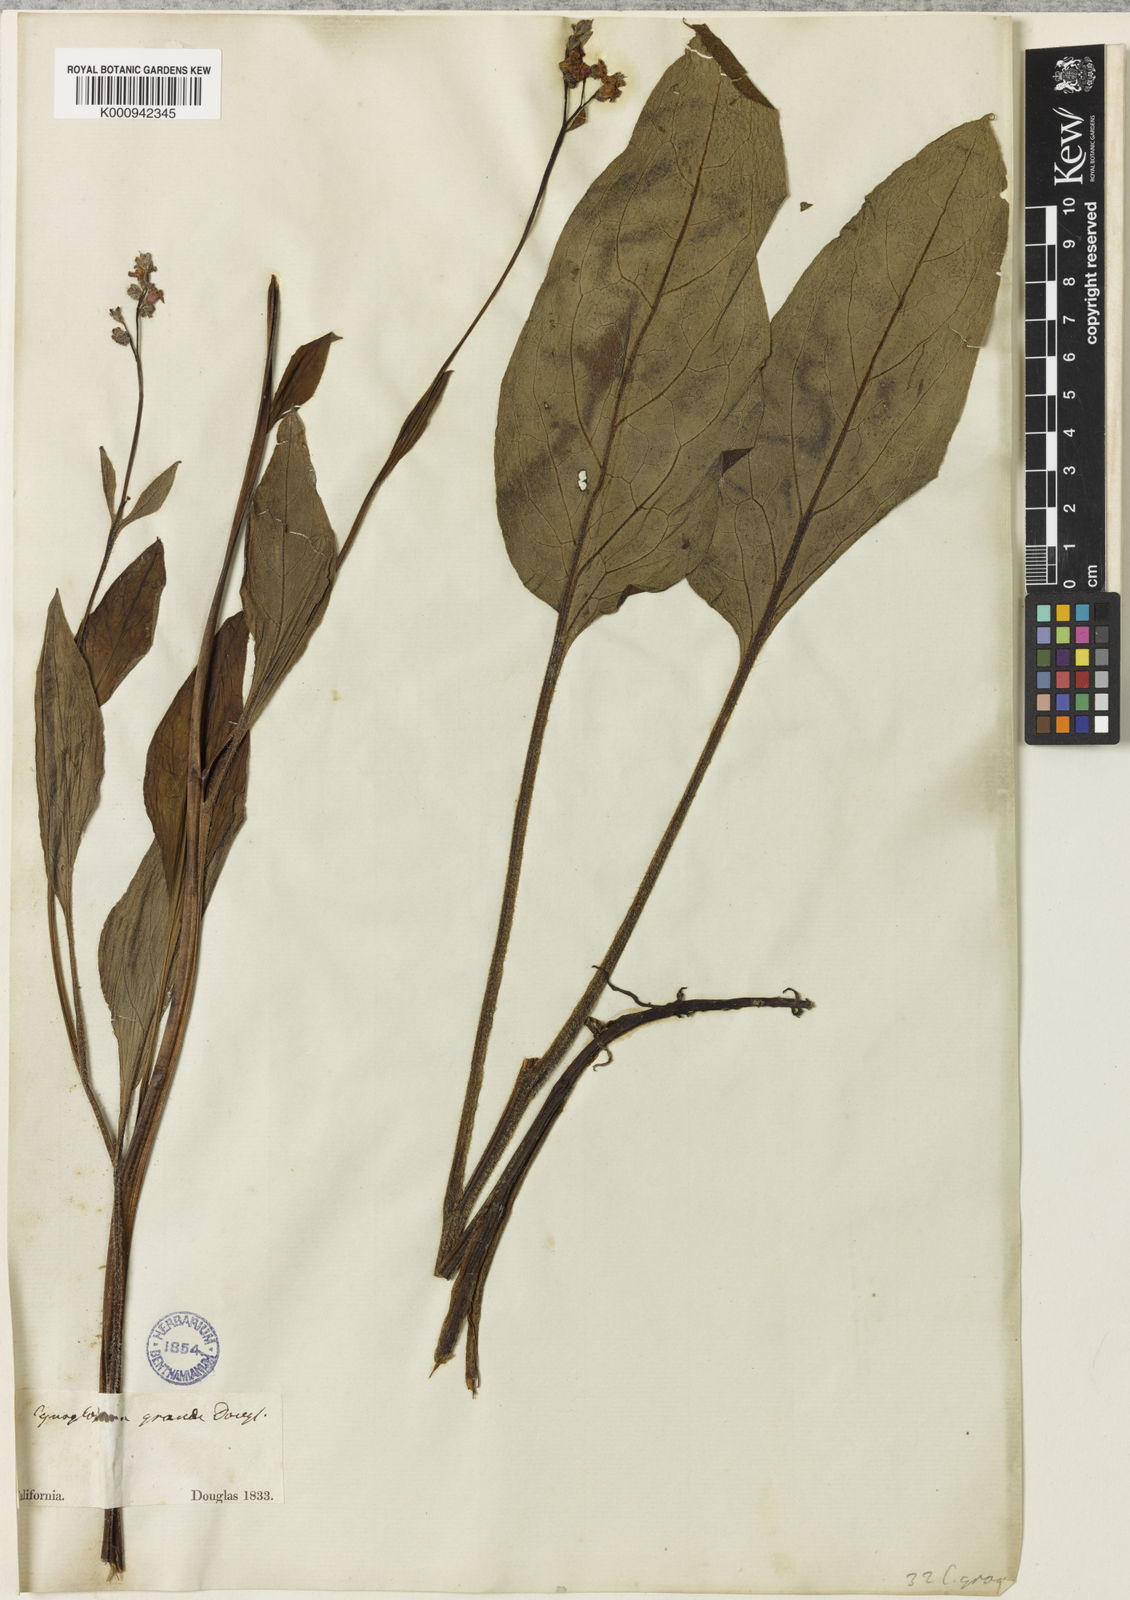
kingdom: Plantae
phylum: Tracheophyta
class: Magnoliopsida
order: Boraginales
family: Boraginaceae
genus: Adelinia
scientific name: Adelinia grande
